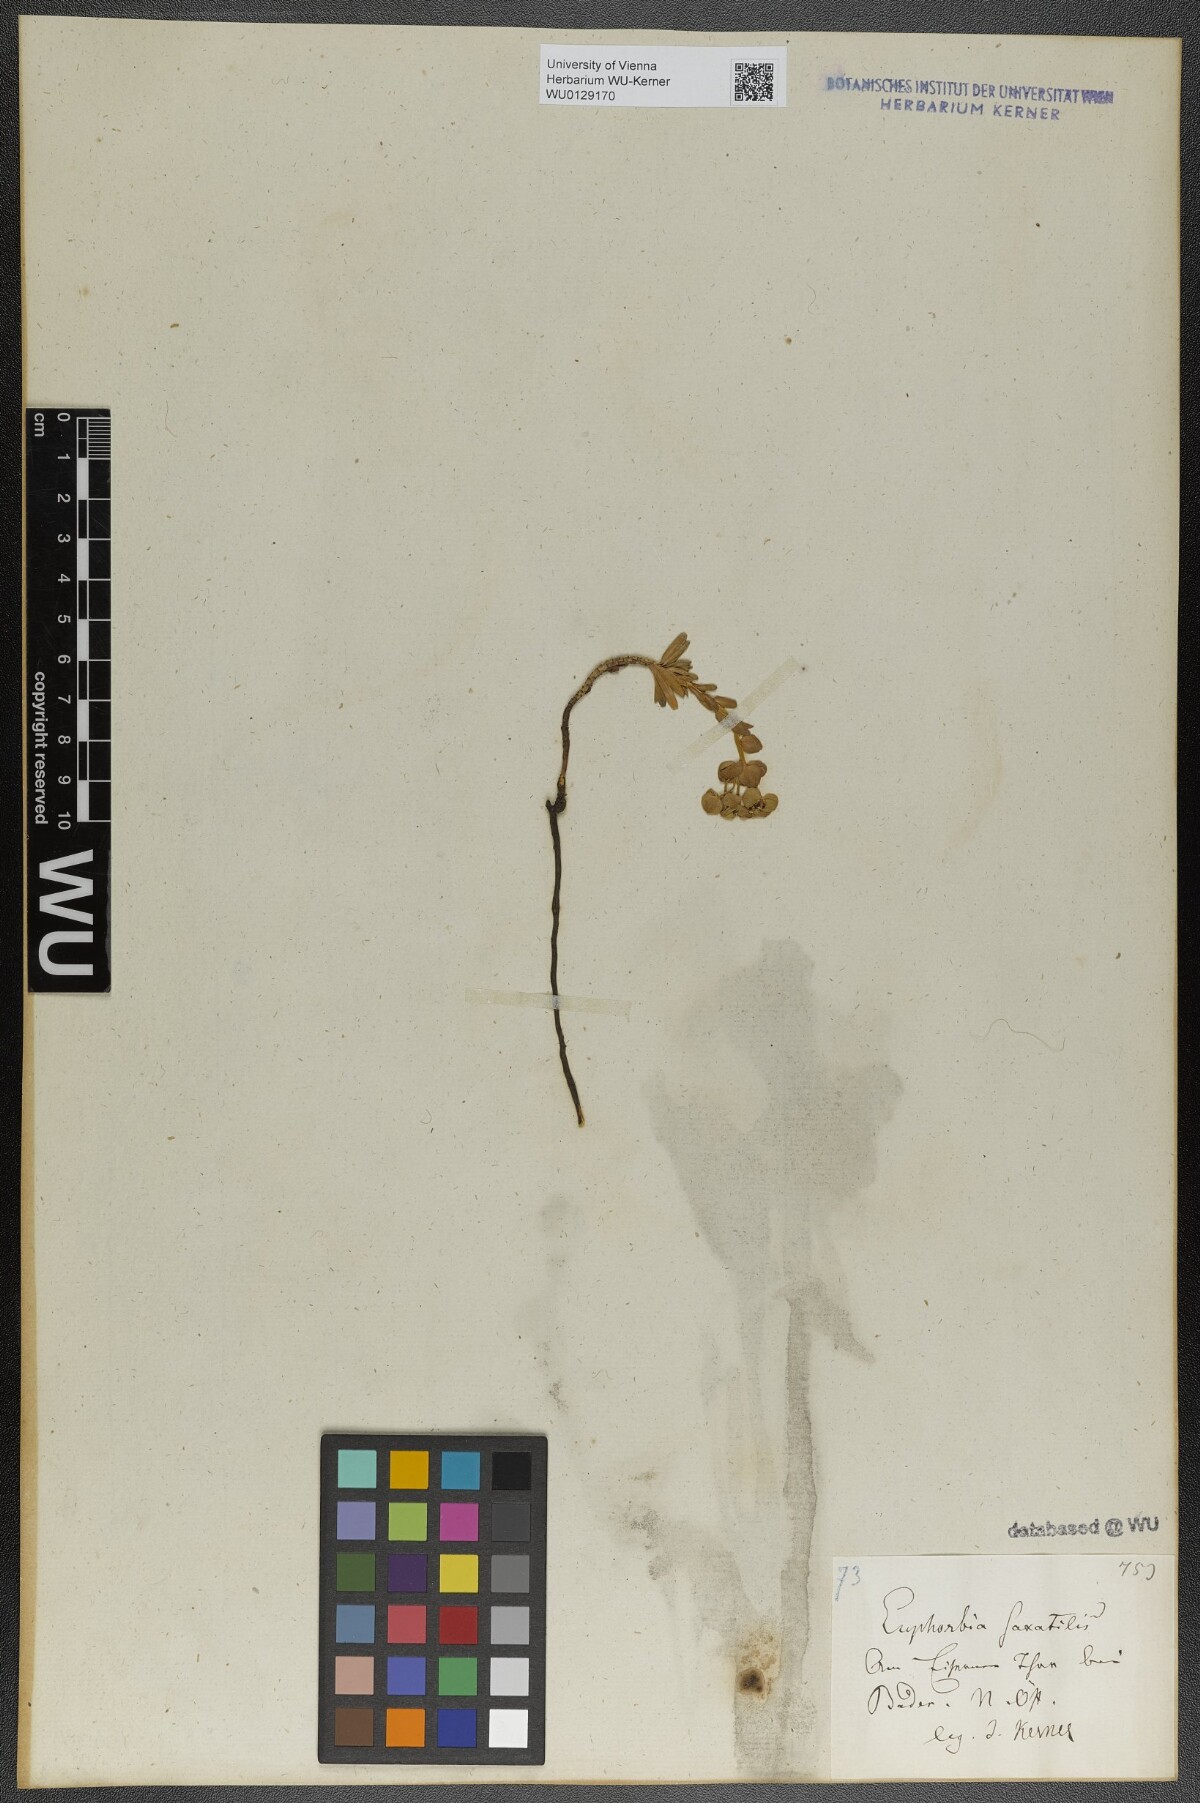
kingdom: Plantae
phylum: Tracheophyta
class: Magnoliopsida
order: Malpighiales
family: Euphorbiaceae
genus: Euphorbia
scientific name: Euphorbia saxatilis
